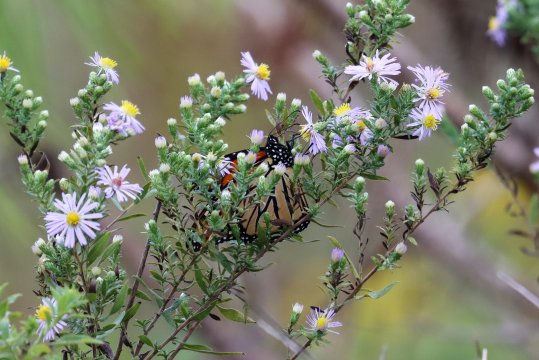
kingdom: Animalia
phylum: Arthropoda
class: Insecta
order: Lepidoptera
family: Nymphalidae
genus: Danaus
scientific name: Danaus plexippus
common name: Monarch
